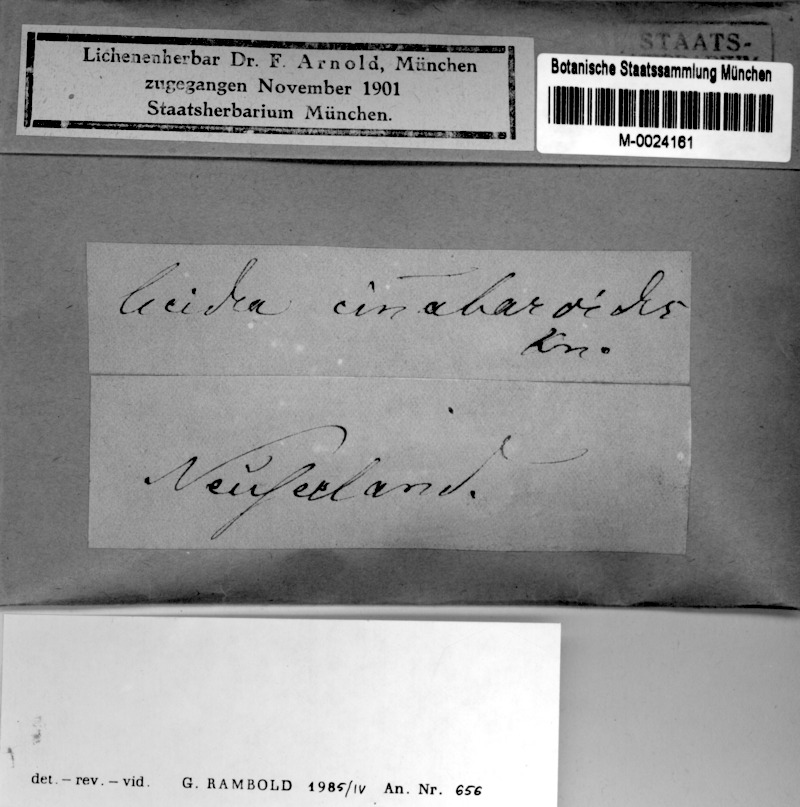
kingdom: Fungi
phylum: Ascomycota
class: Lecanoromycetes
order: Pertusariales
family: Miltideaceae
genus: Miltidea
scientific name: Miltidea ceroplasta
